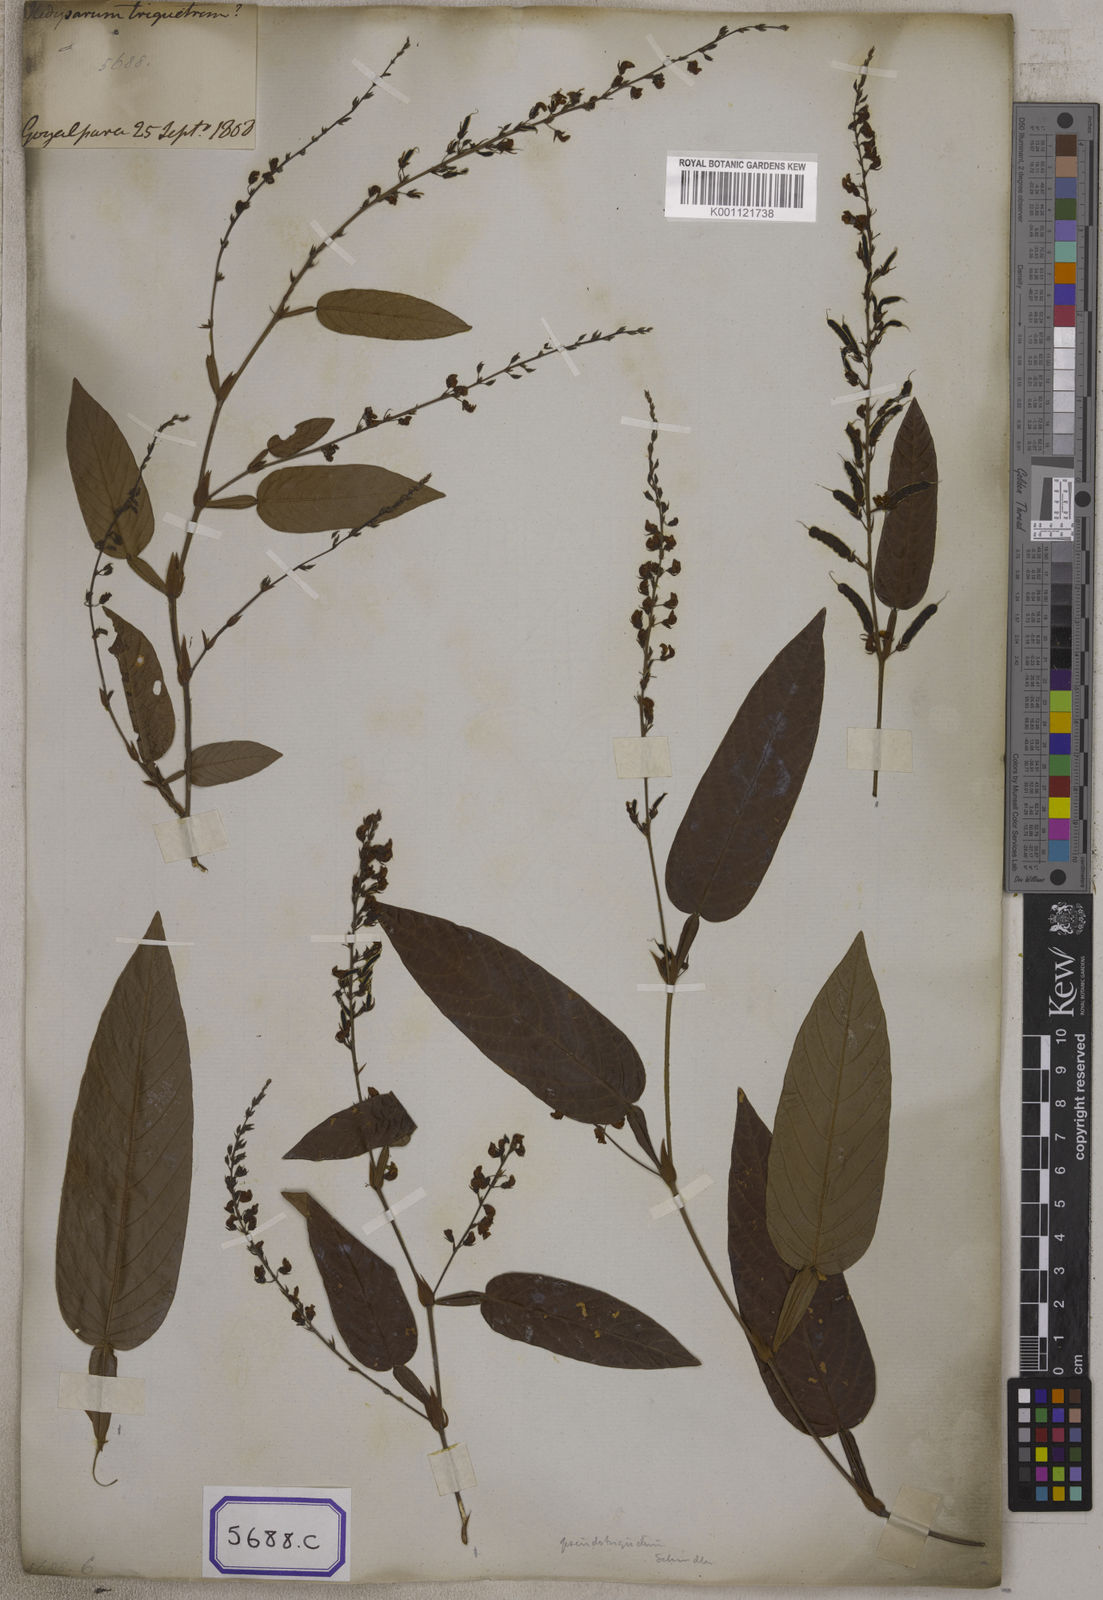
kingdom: Plantae
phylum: Tracheophyta
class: Magnoliopsida
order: Fabales
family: Fabaceae
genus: Tadehagi
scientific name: Tadehagi triquetrum
